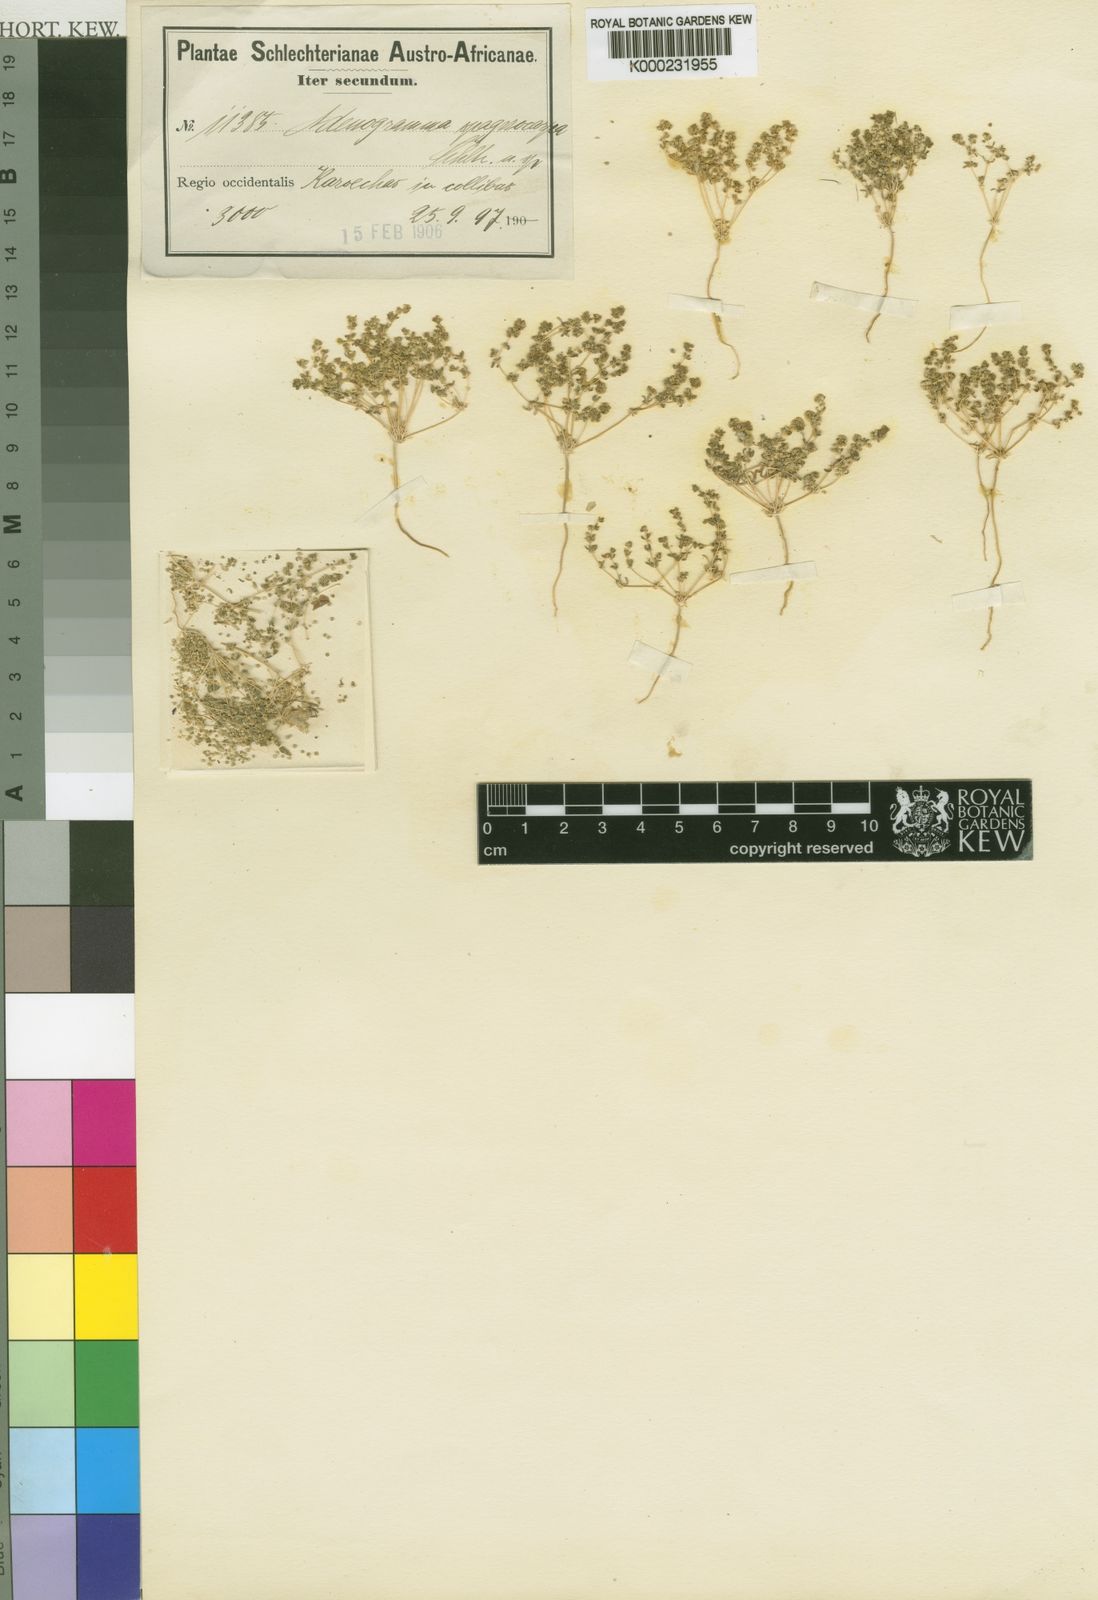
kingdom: Plantae
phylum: Tracheophyta
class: Magnoliopsida
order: Caryophyllales
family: Molluginaceae
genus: Adenogramma
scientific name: Adenogramma littoralis
